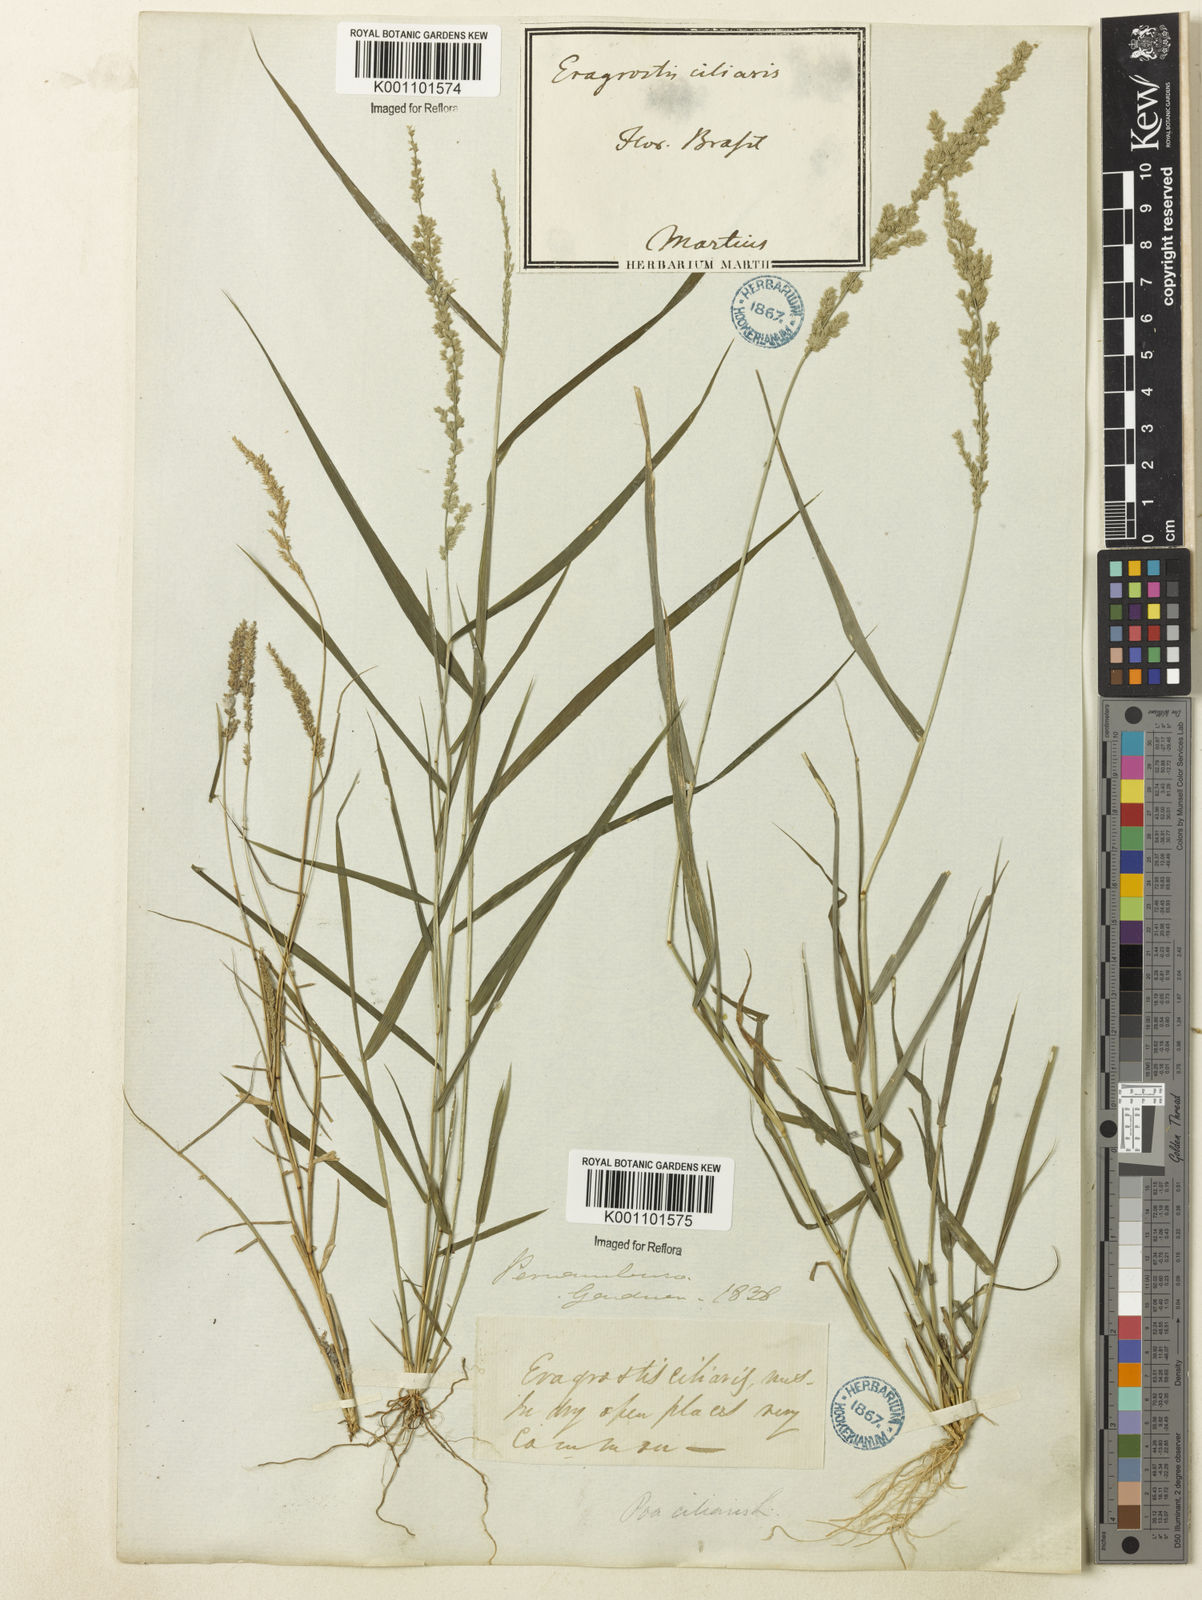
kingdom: Plantae
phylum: Tracheophyta
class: Liliopsida
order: Poales
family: Poaceae
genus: Eragrostis
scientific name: Eragrostis ciliaris
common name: Gophertail lovegrass
